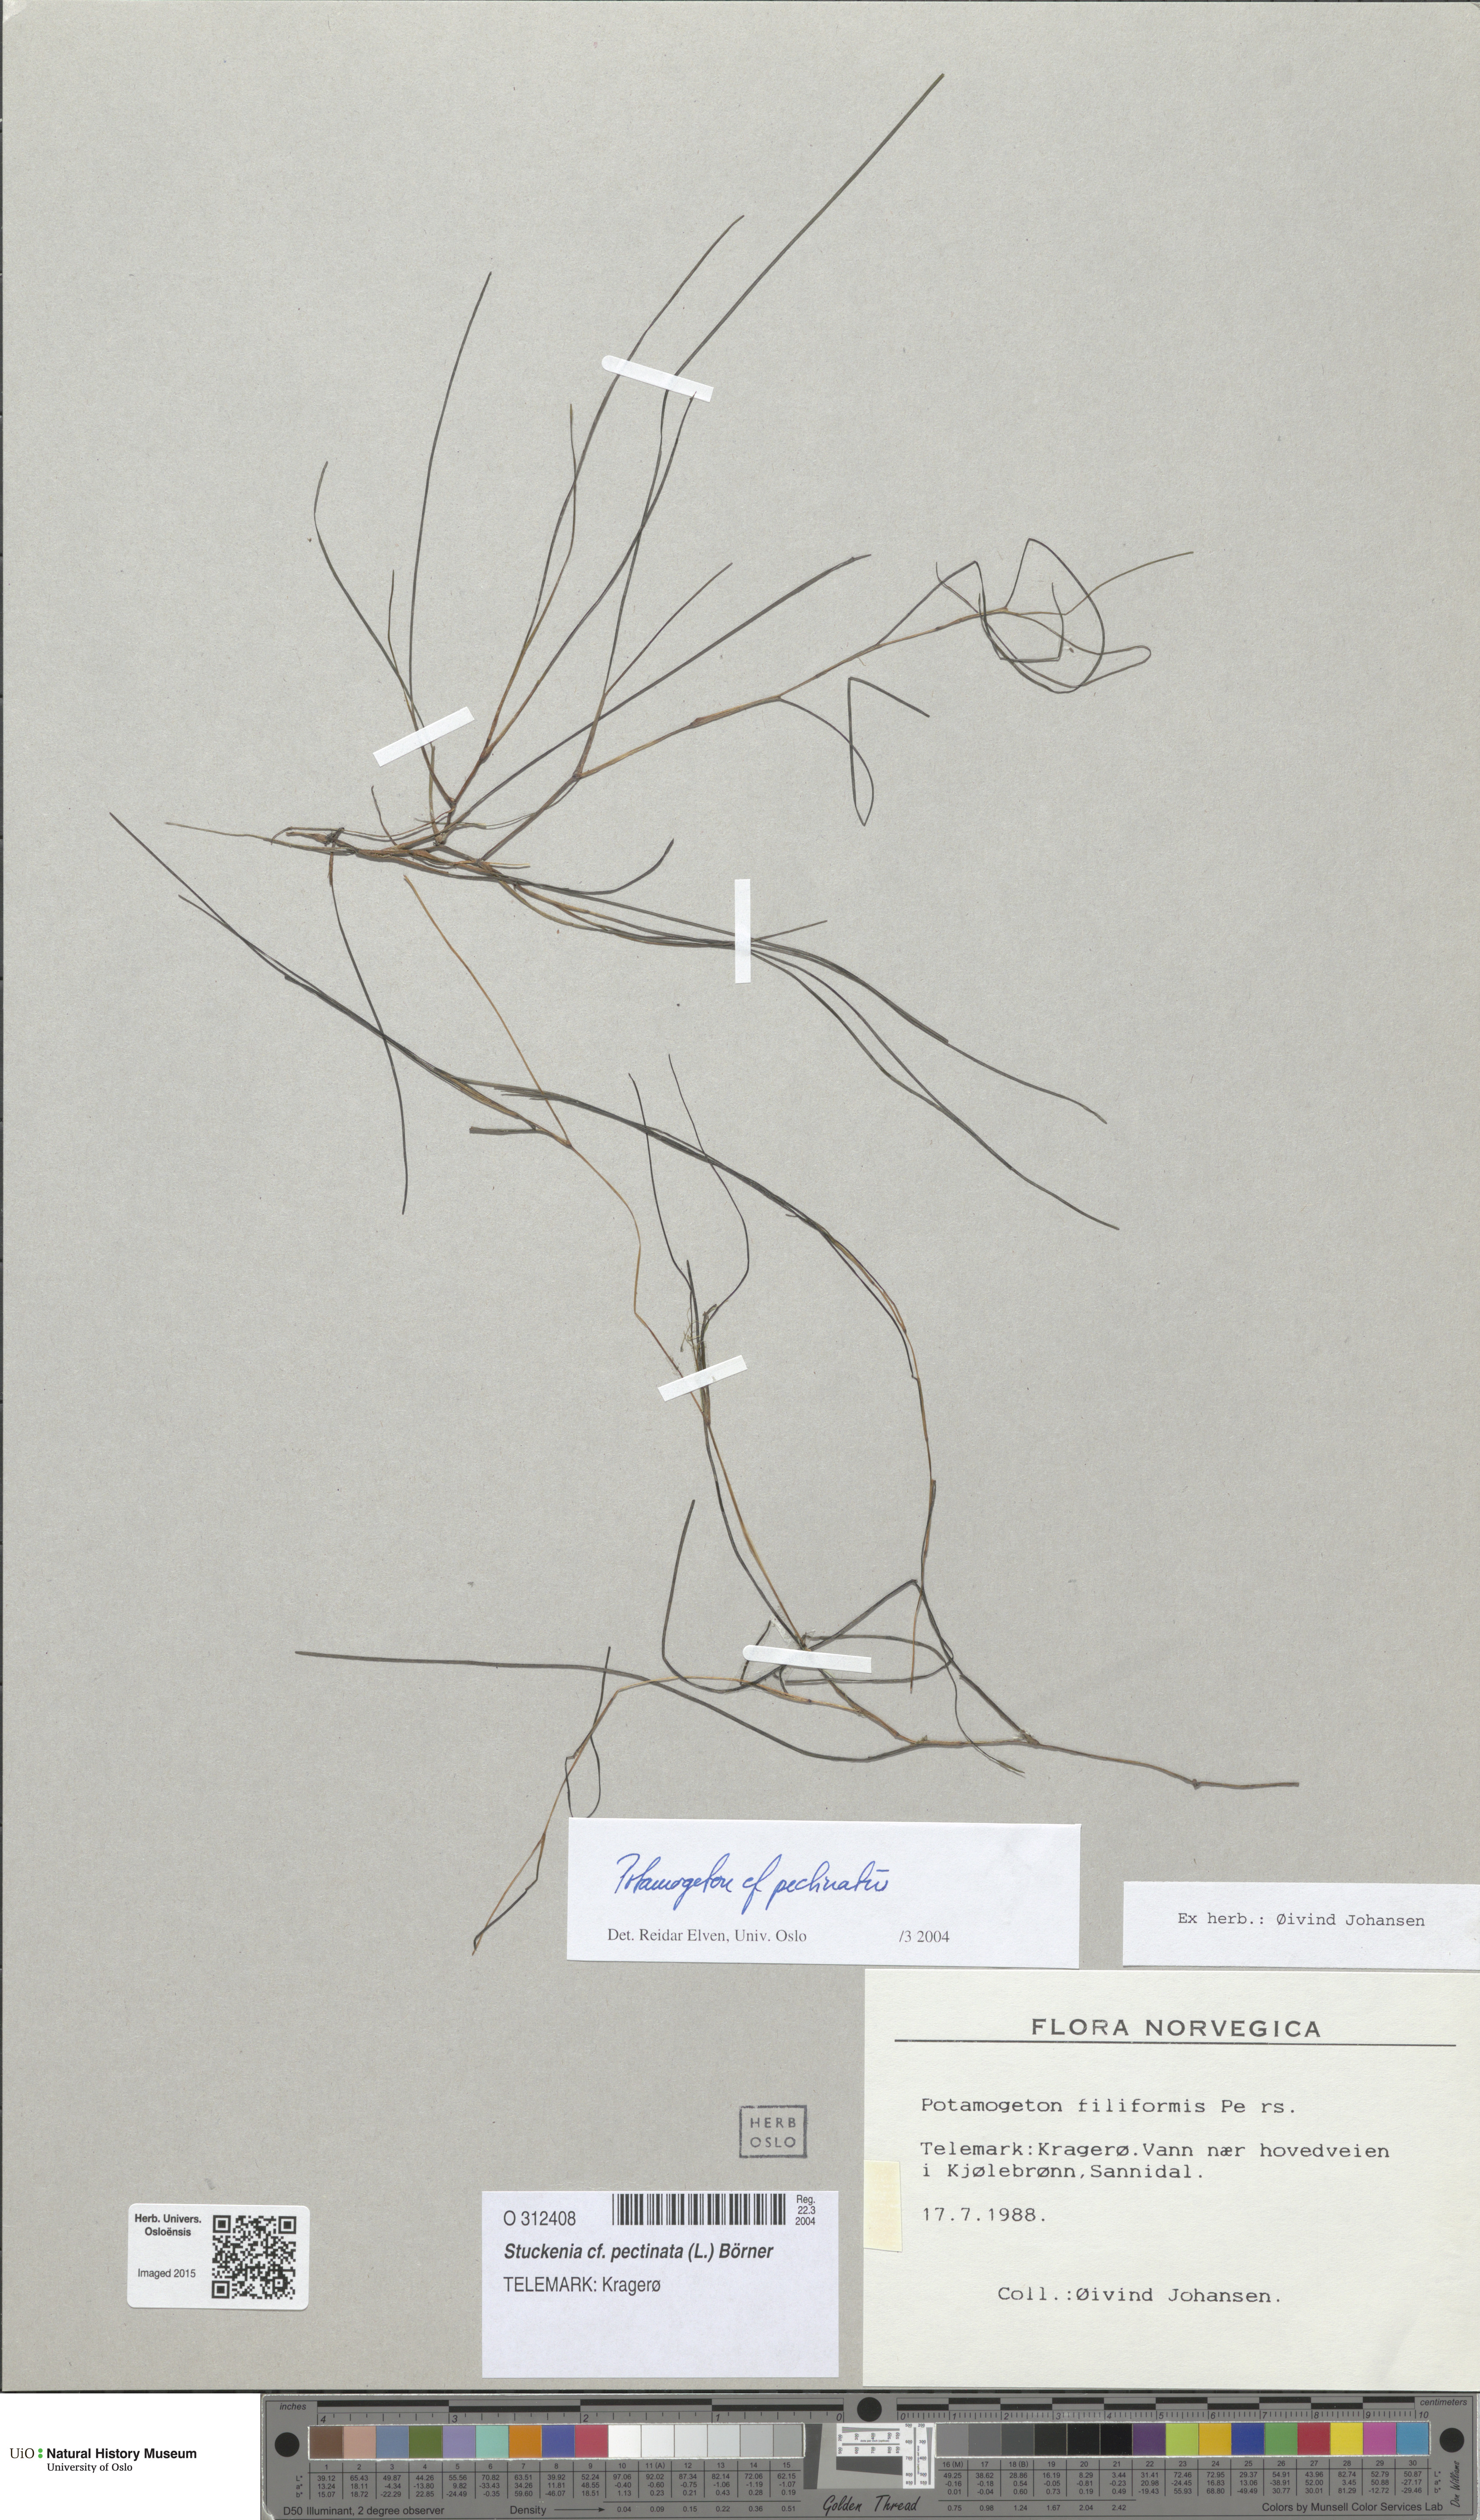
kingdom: Plantae
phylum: Tracheophyta
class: Liliopsida
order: Alismatales
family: Ruppiaceae
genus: Ruppia
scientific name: Ruppia cirrhosa
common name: Spiral tasselweed
